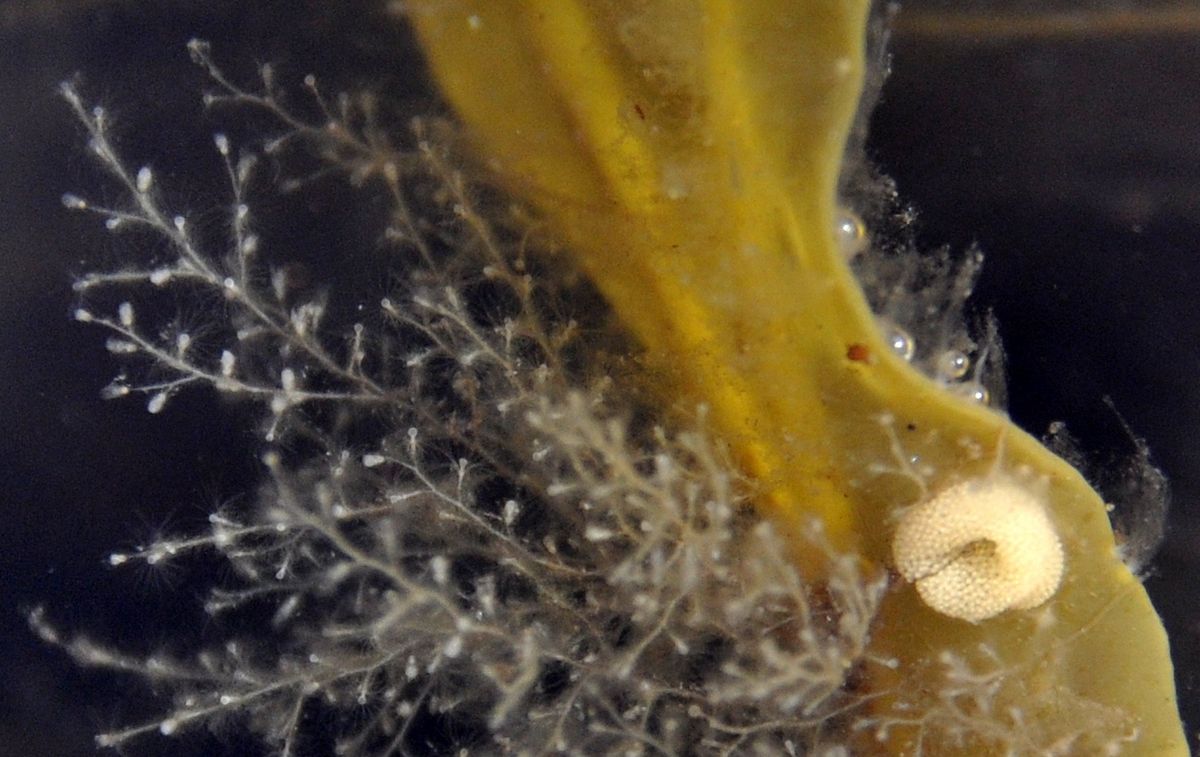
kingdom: Animalia
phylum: Mollusca
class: Gastropoda
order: Littorinimorpha
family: Littorinidae
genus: Lacuna
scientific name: Lacuna vincta
